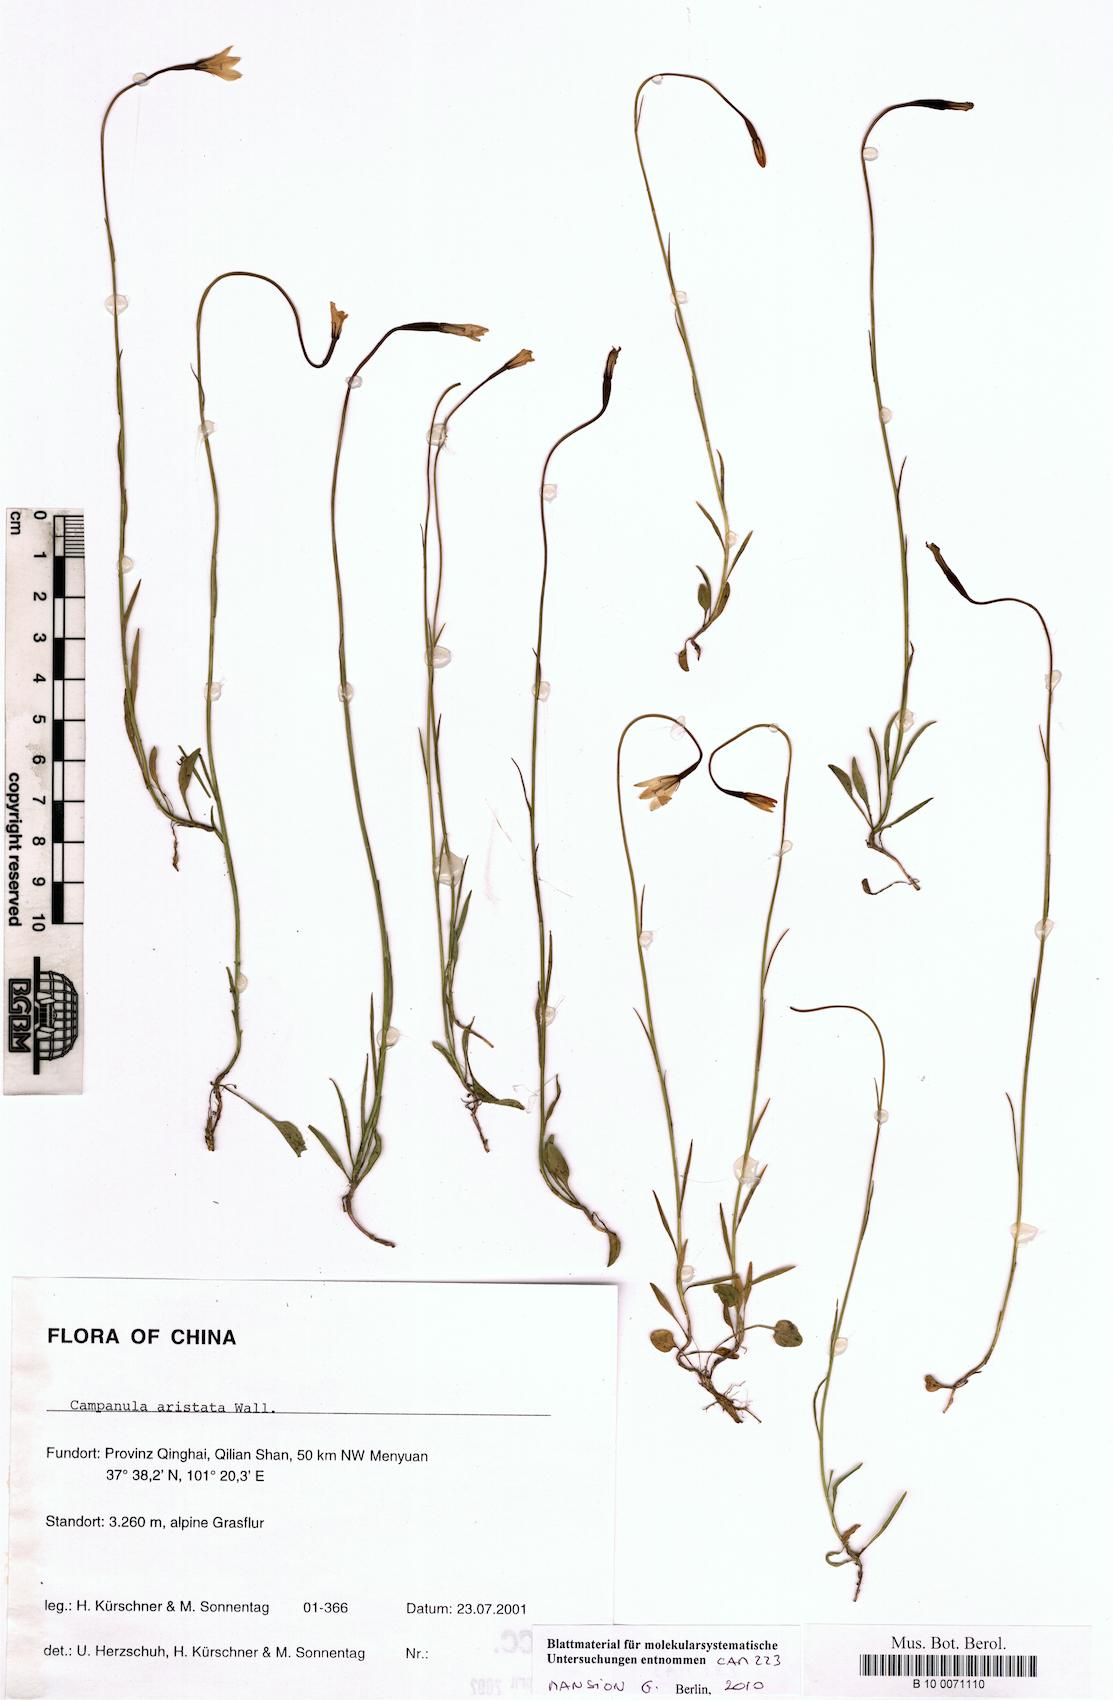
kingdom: Plantae
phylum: Tracheophyta
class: Magnoliopsida
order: Asterales
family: Campanulaceae
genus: Campanula
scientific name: Campanula aristata
